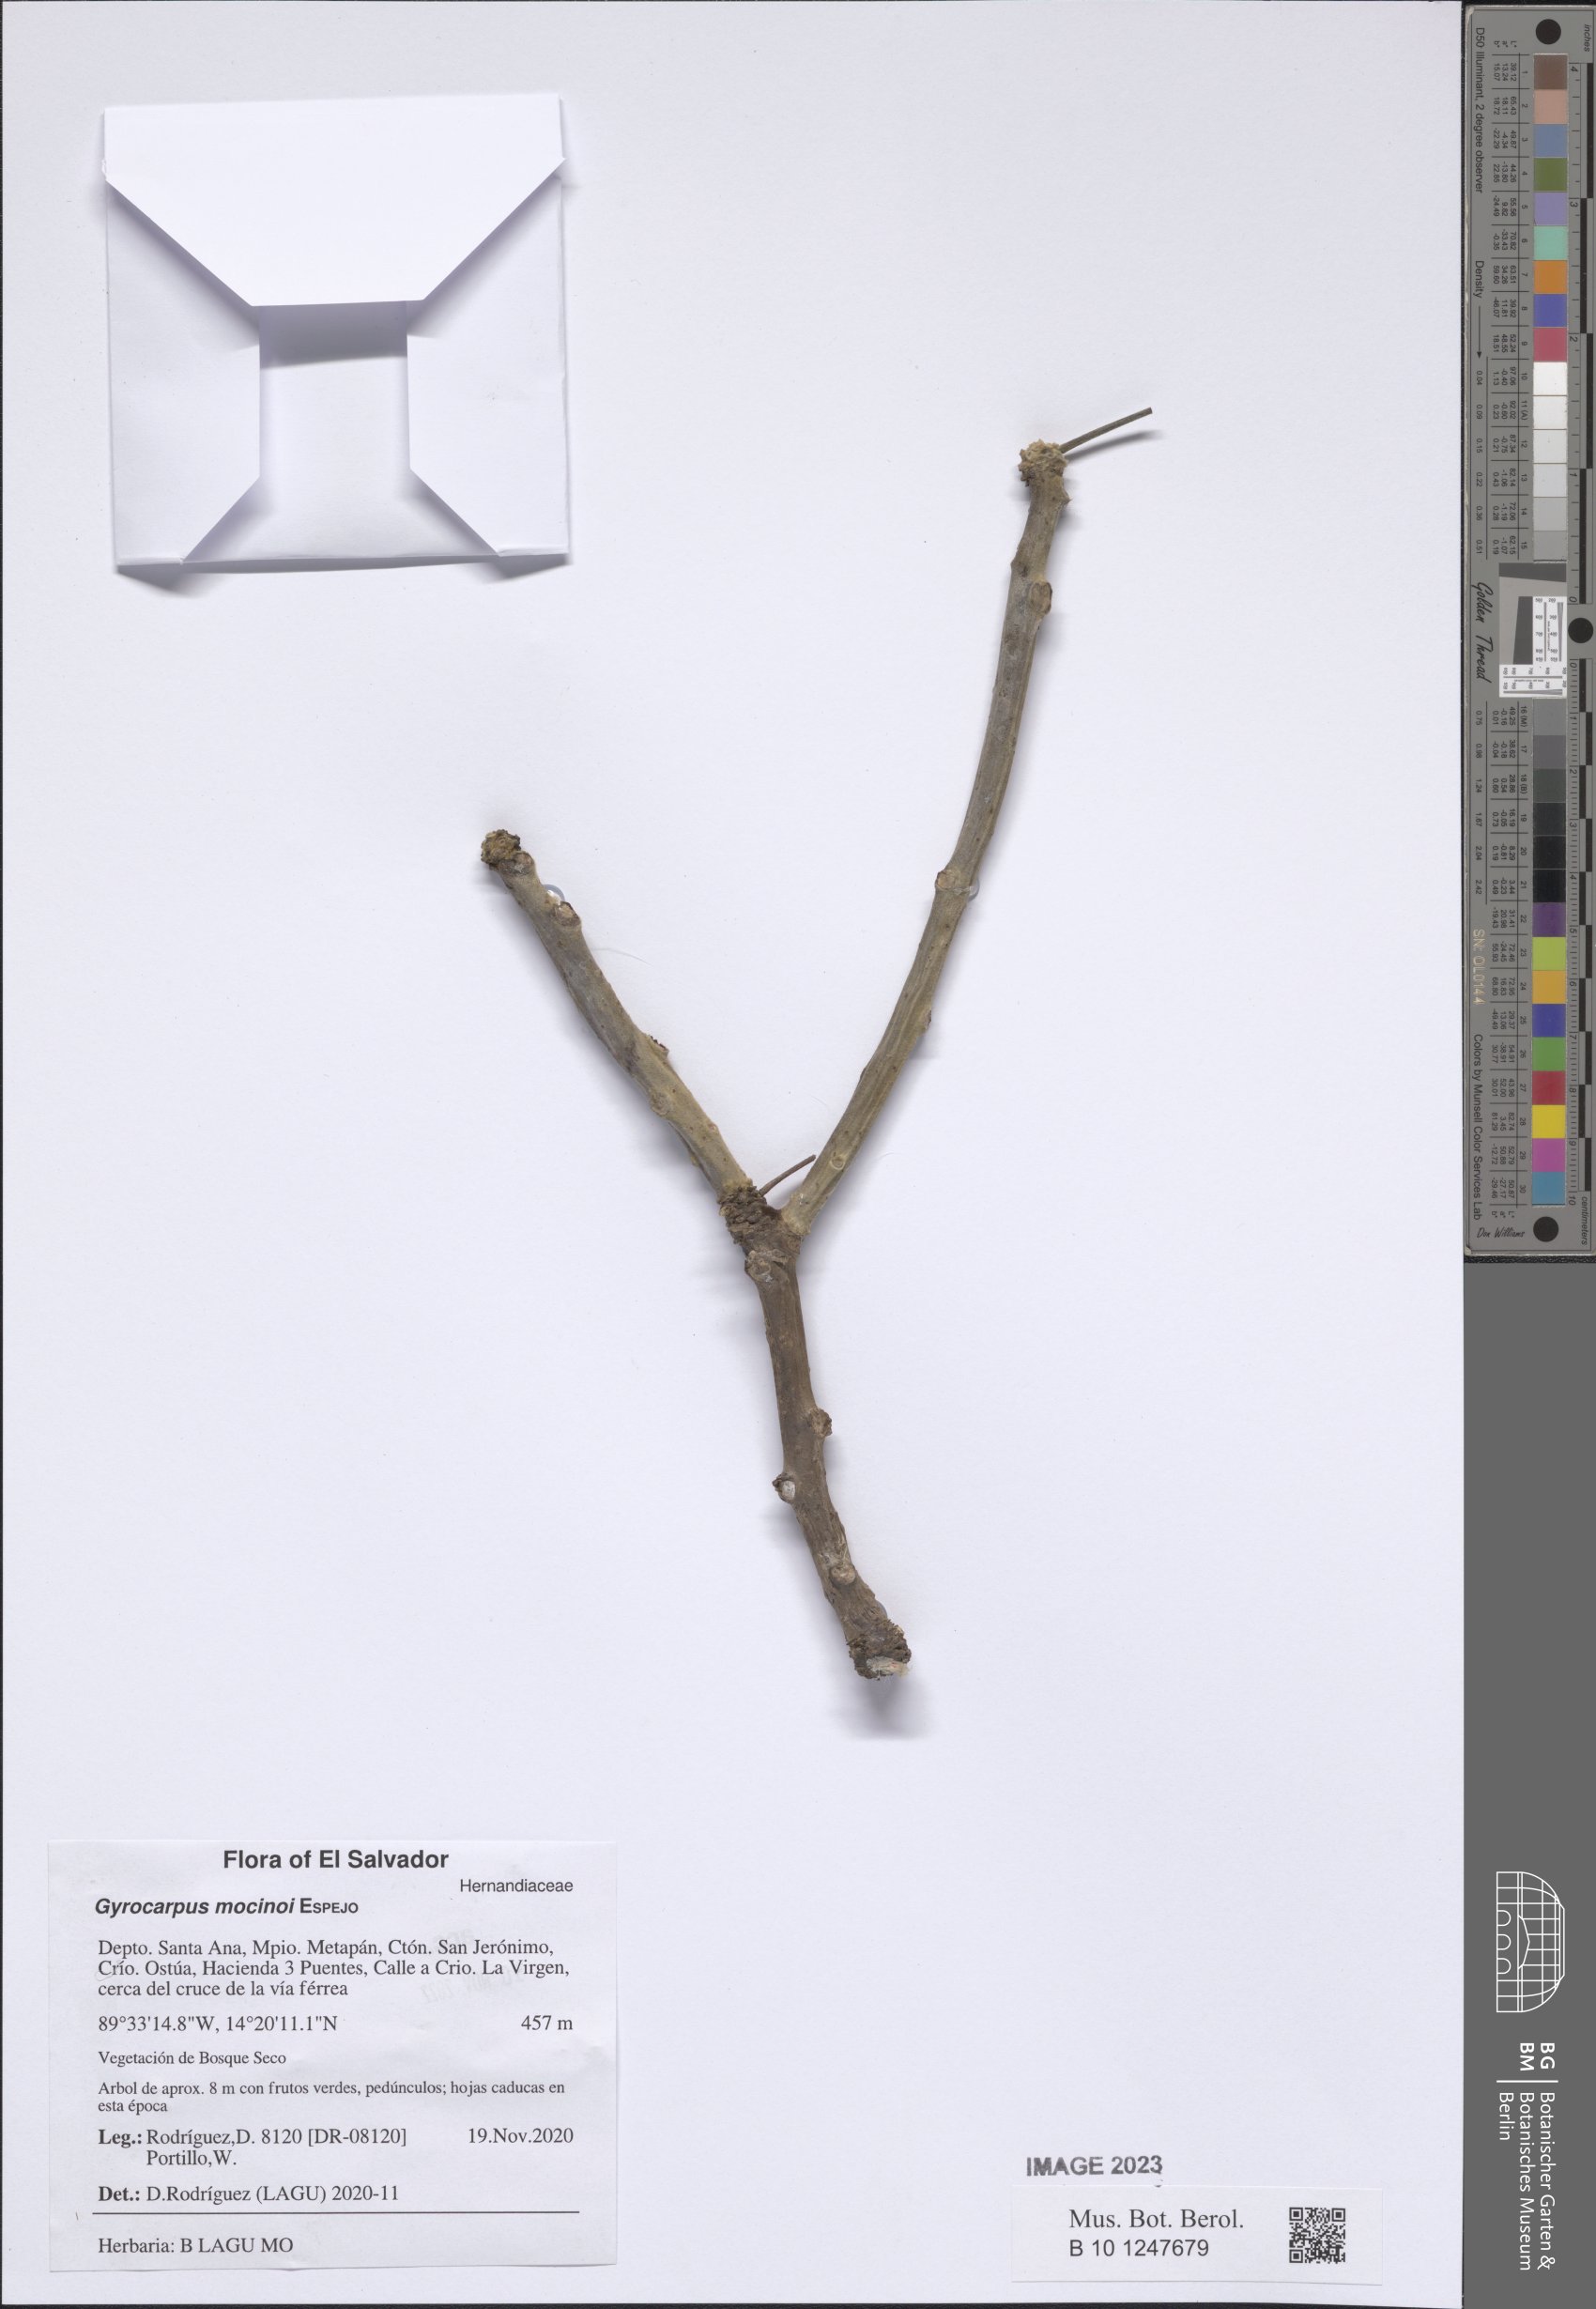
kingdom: Plantae
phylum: Tracheophyta
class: Magnoliopsida
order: Laurales
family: Hernandiaceae
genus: Gyrocarpus
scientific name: Gyrocarpus mocinoi
